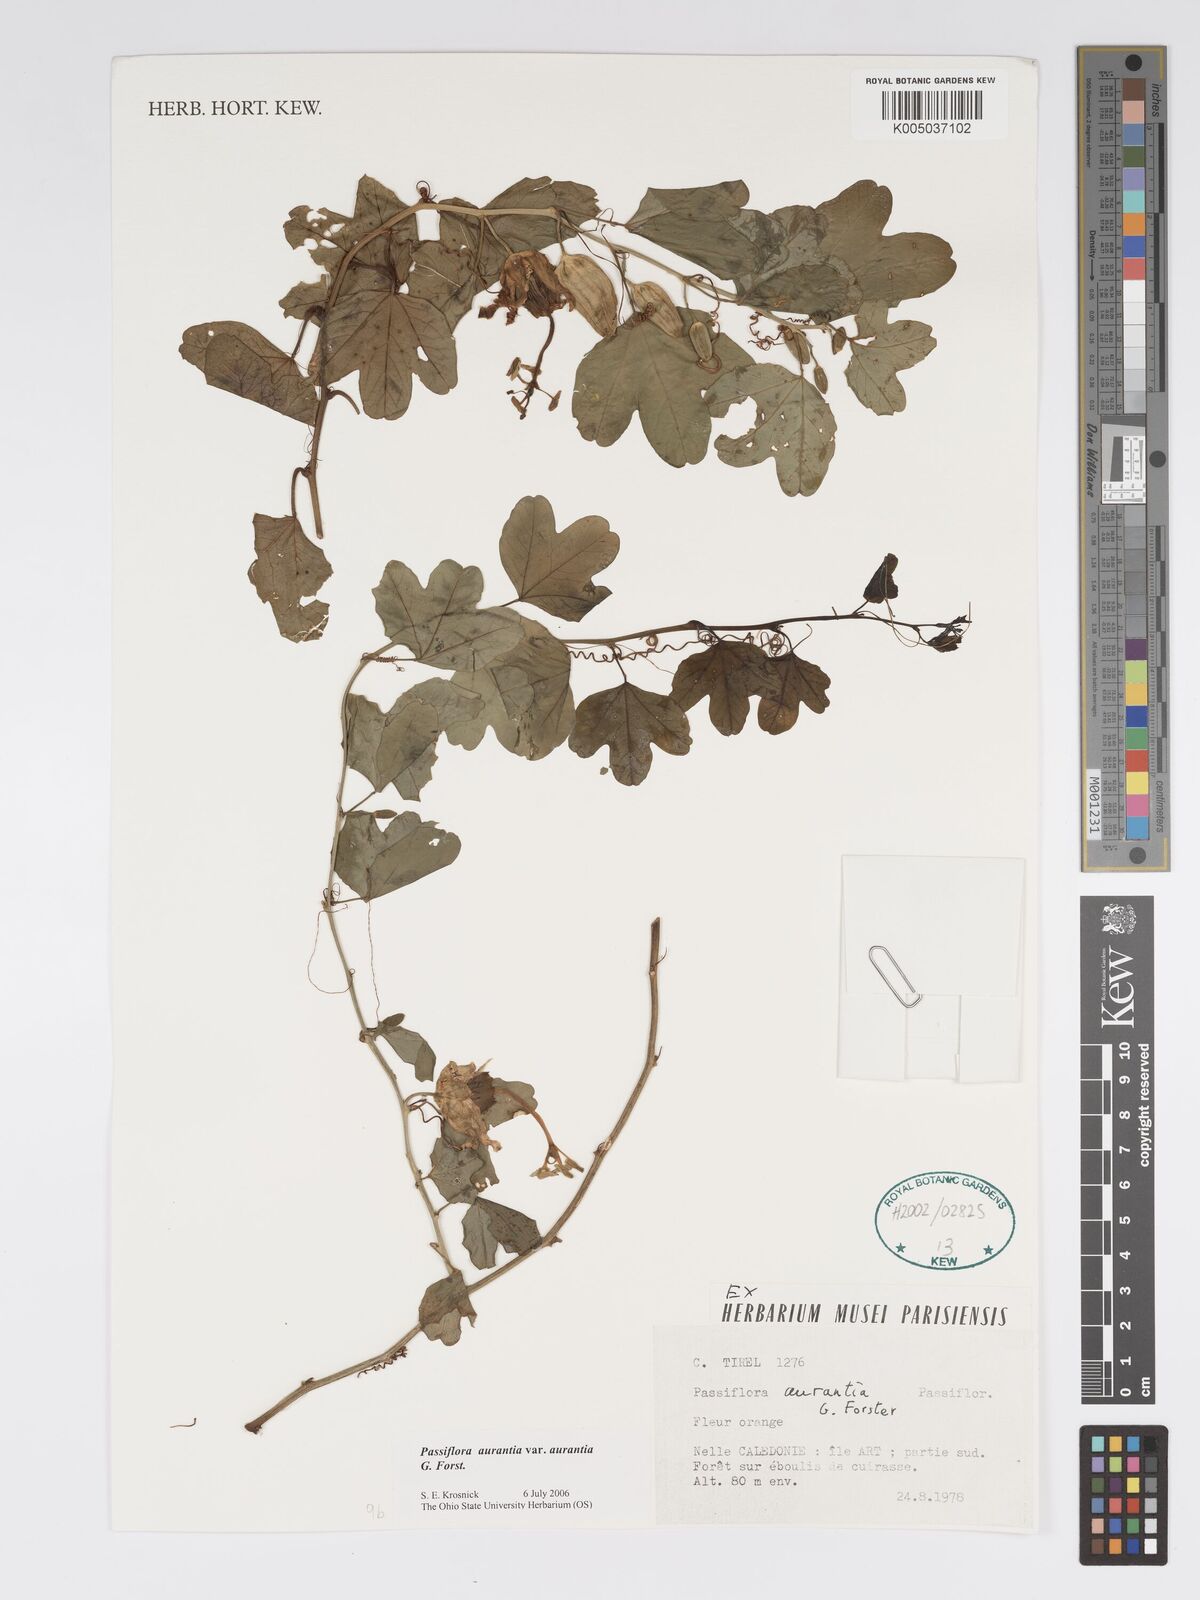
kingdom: Plantae
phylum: Tracheophyta
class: Magnoliopsida
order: Malpighiales
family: Passifloraceae
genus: Passiflora
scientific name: Passiflora aurantia
